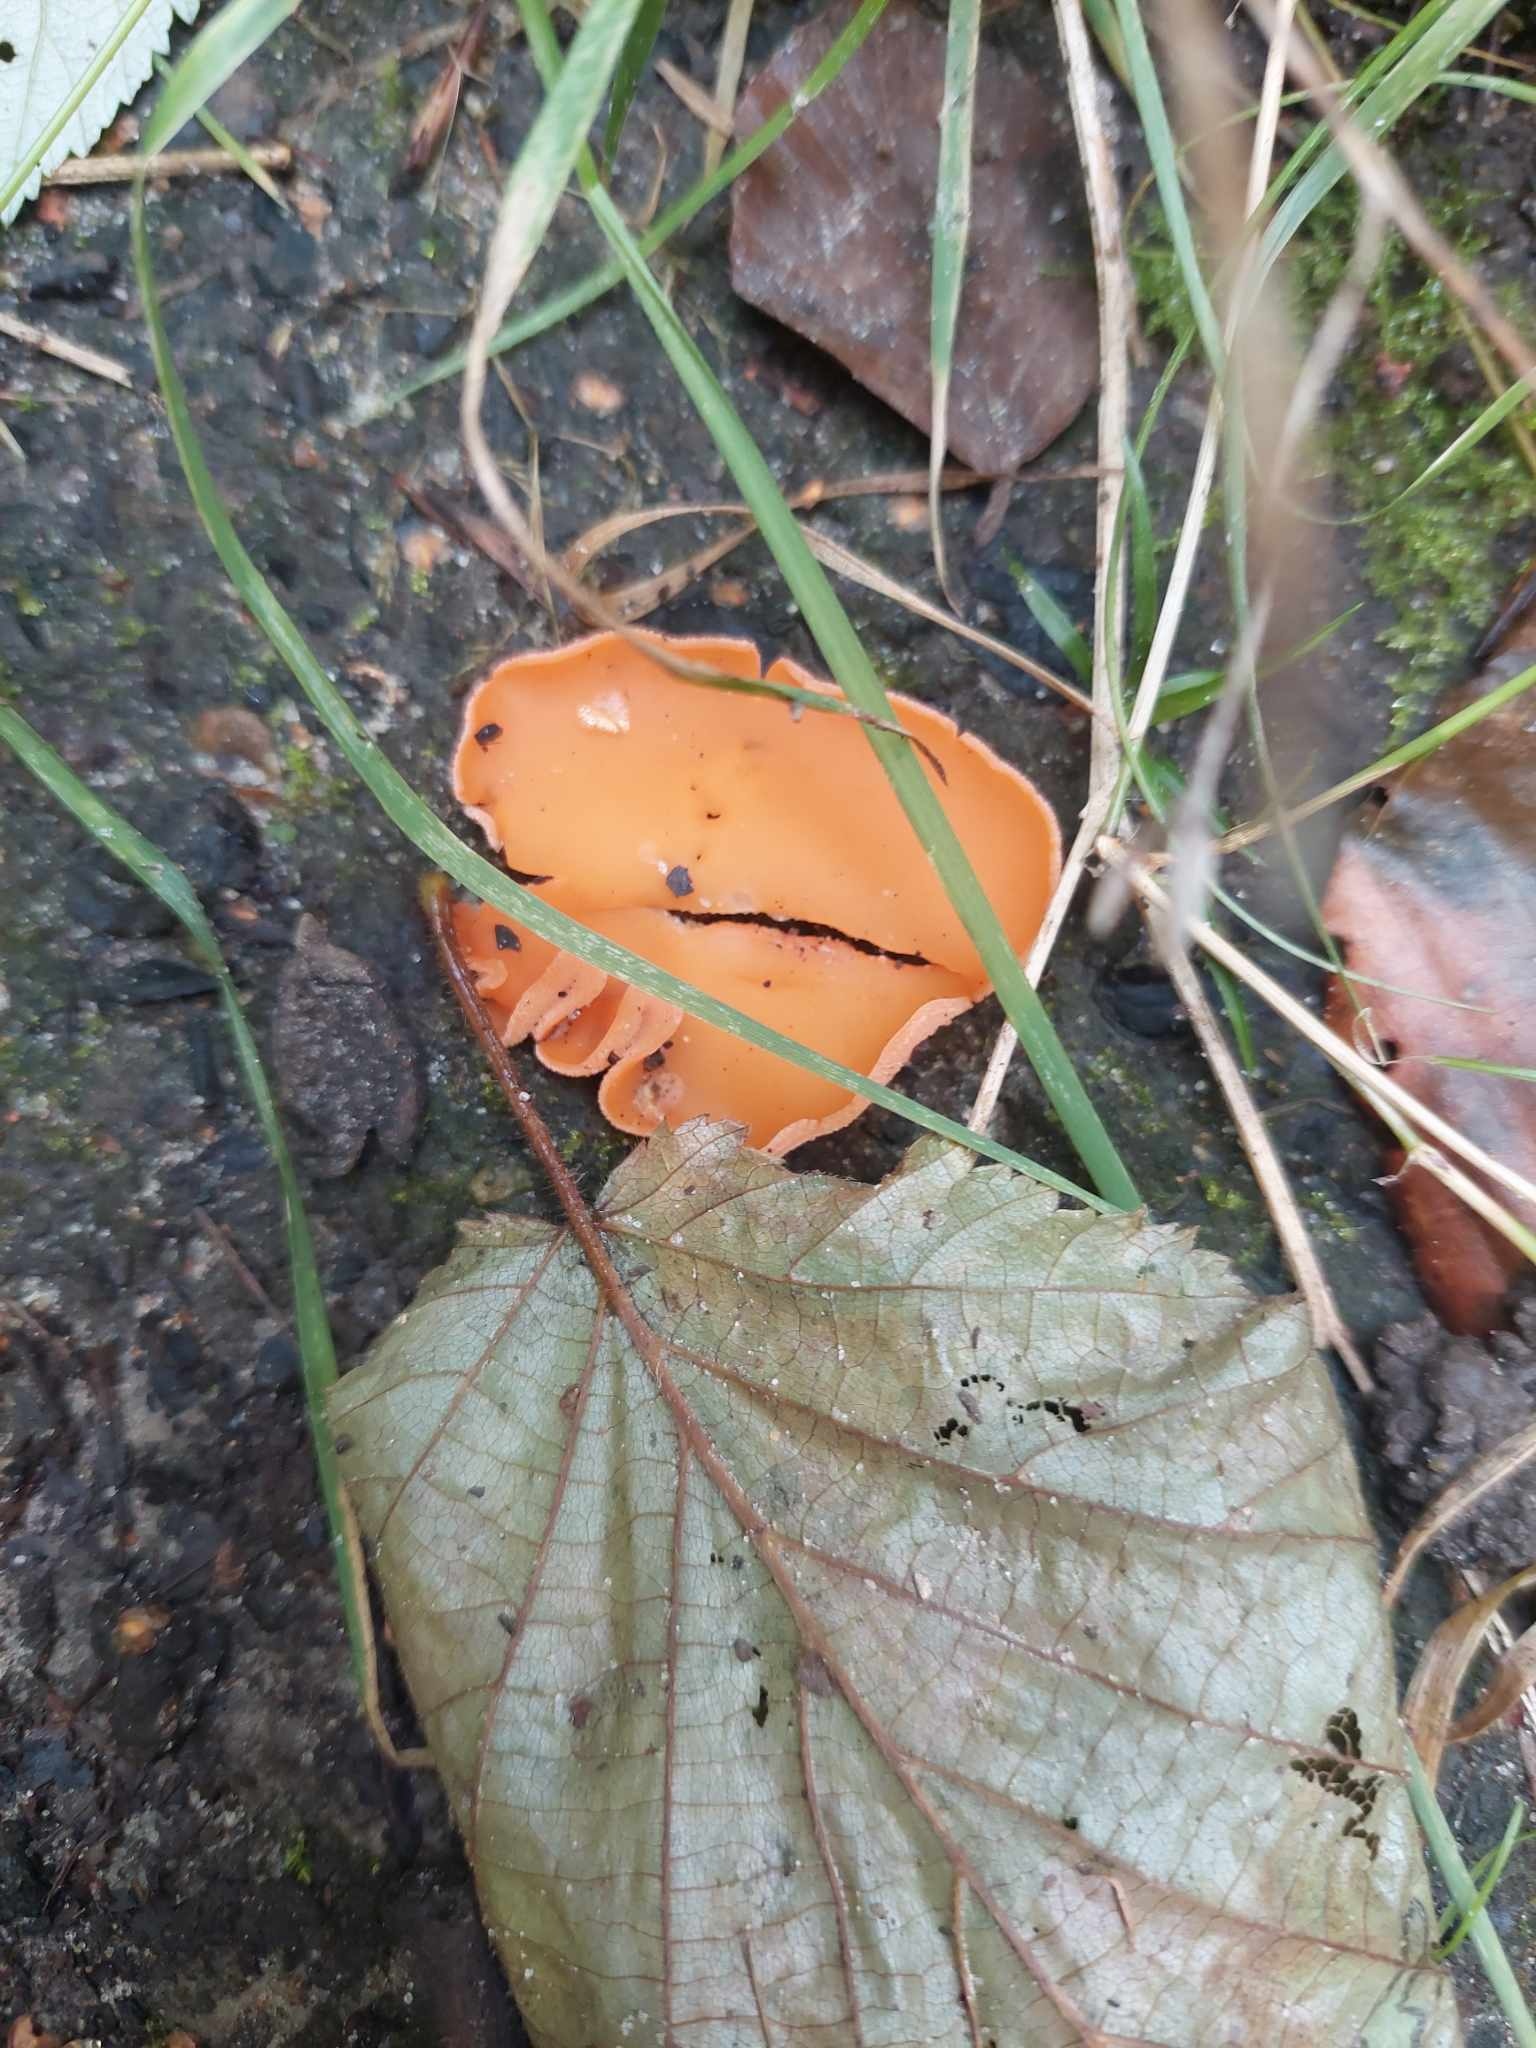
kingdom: Fungi
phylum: Ascomycota
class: Pezizomycetes
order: Pezizales
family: Pyronemataceae
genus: Aleuria
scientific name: Aleuria aurantia
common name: almindelig orangebæger
